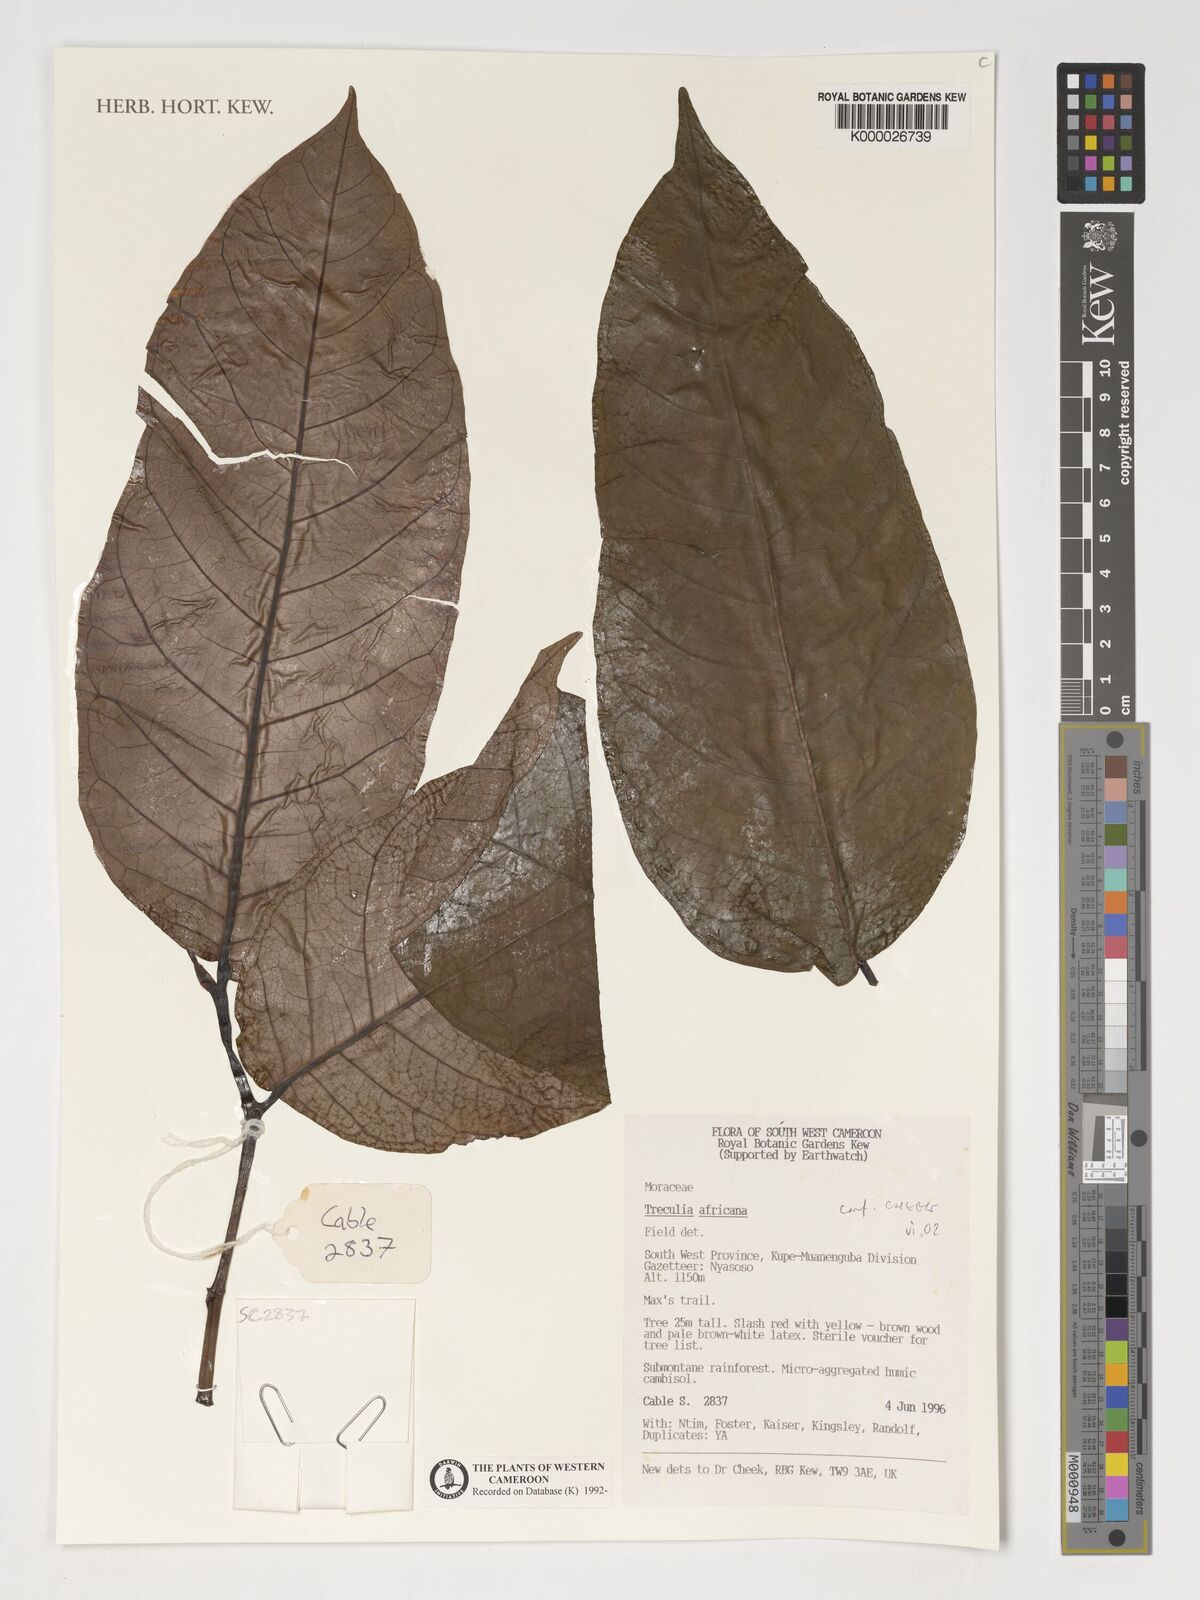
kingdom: Plantae
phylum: Tracheophyta
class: Magnoliopsida
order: Rosales
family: Moraceae
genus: Treculia
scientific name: Treculia
